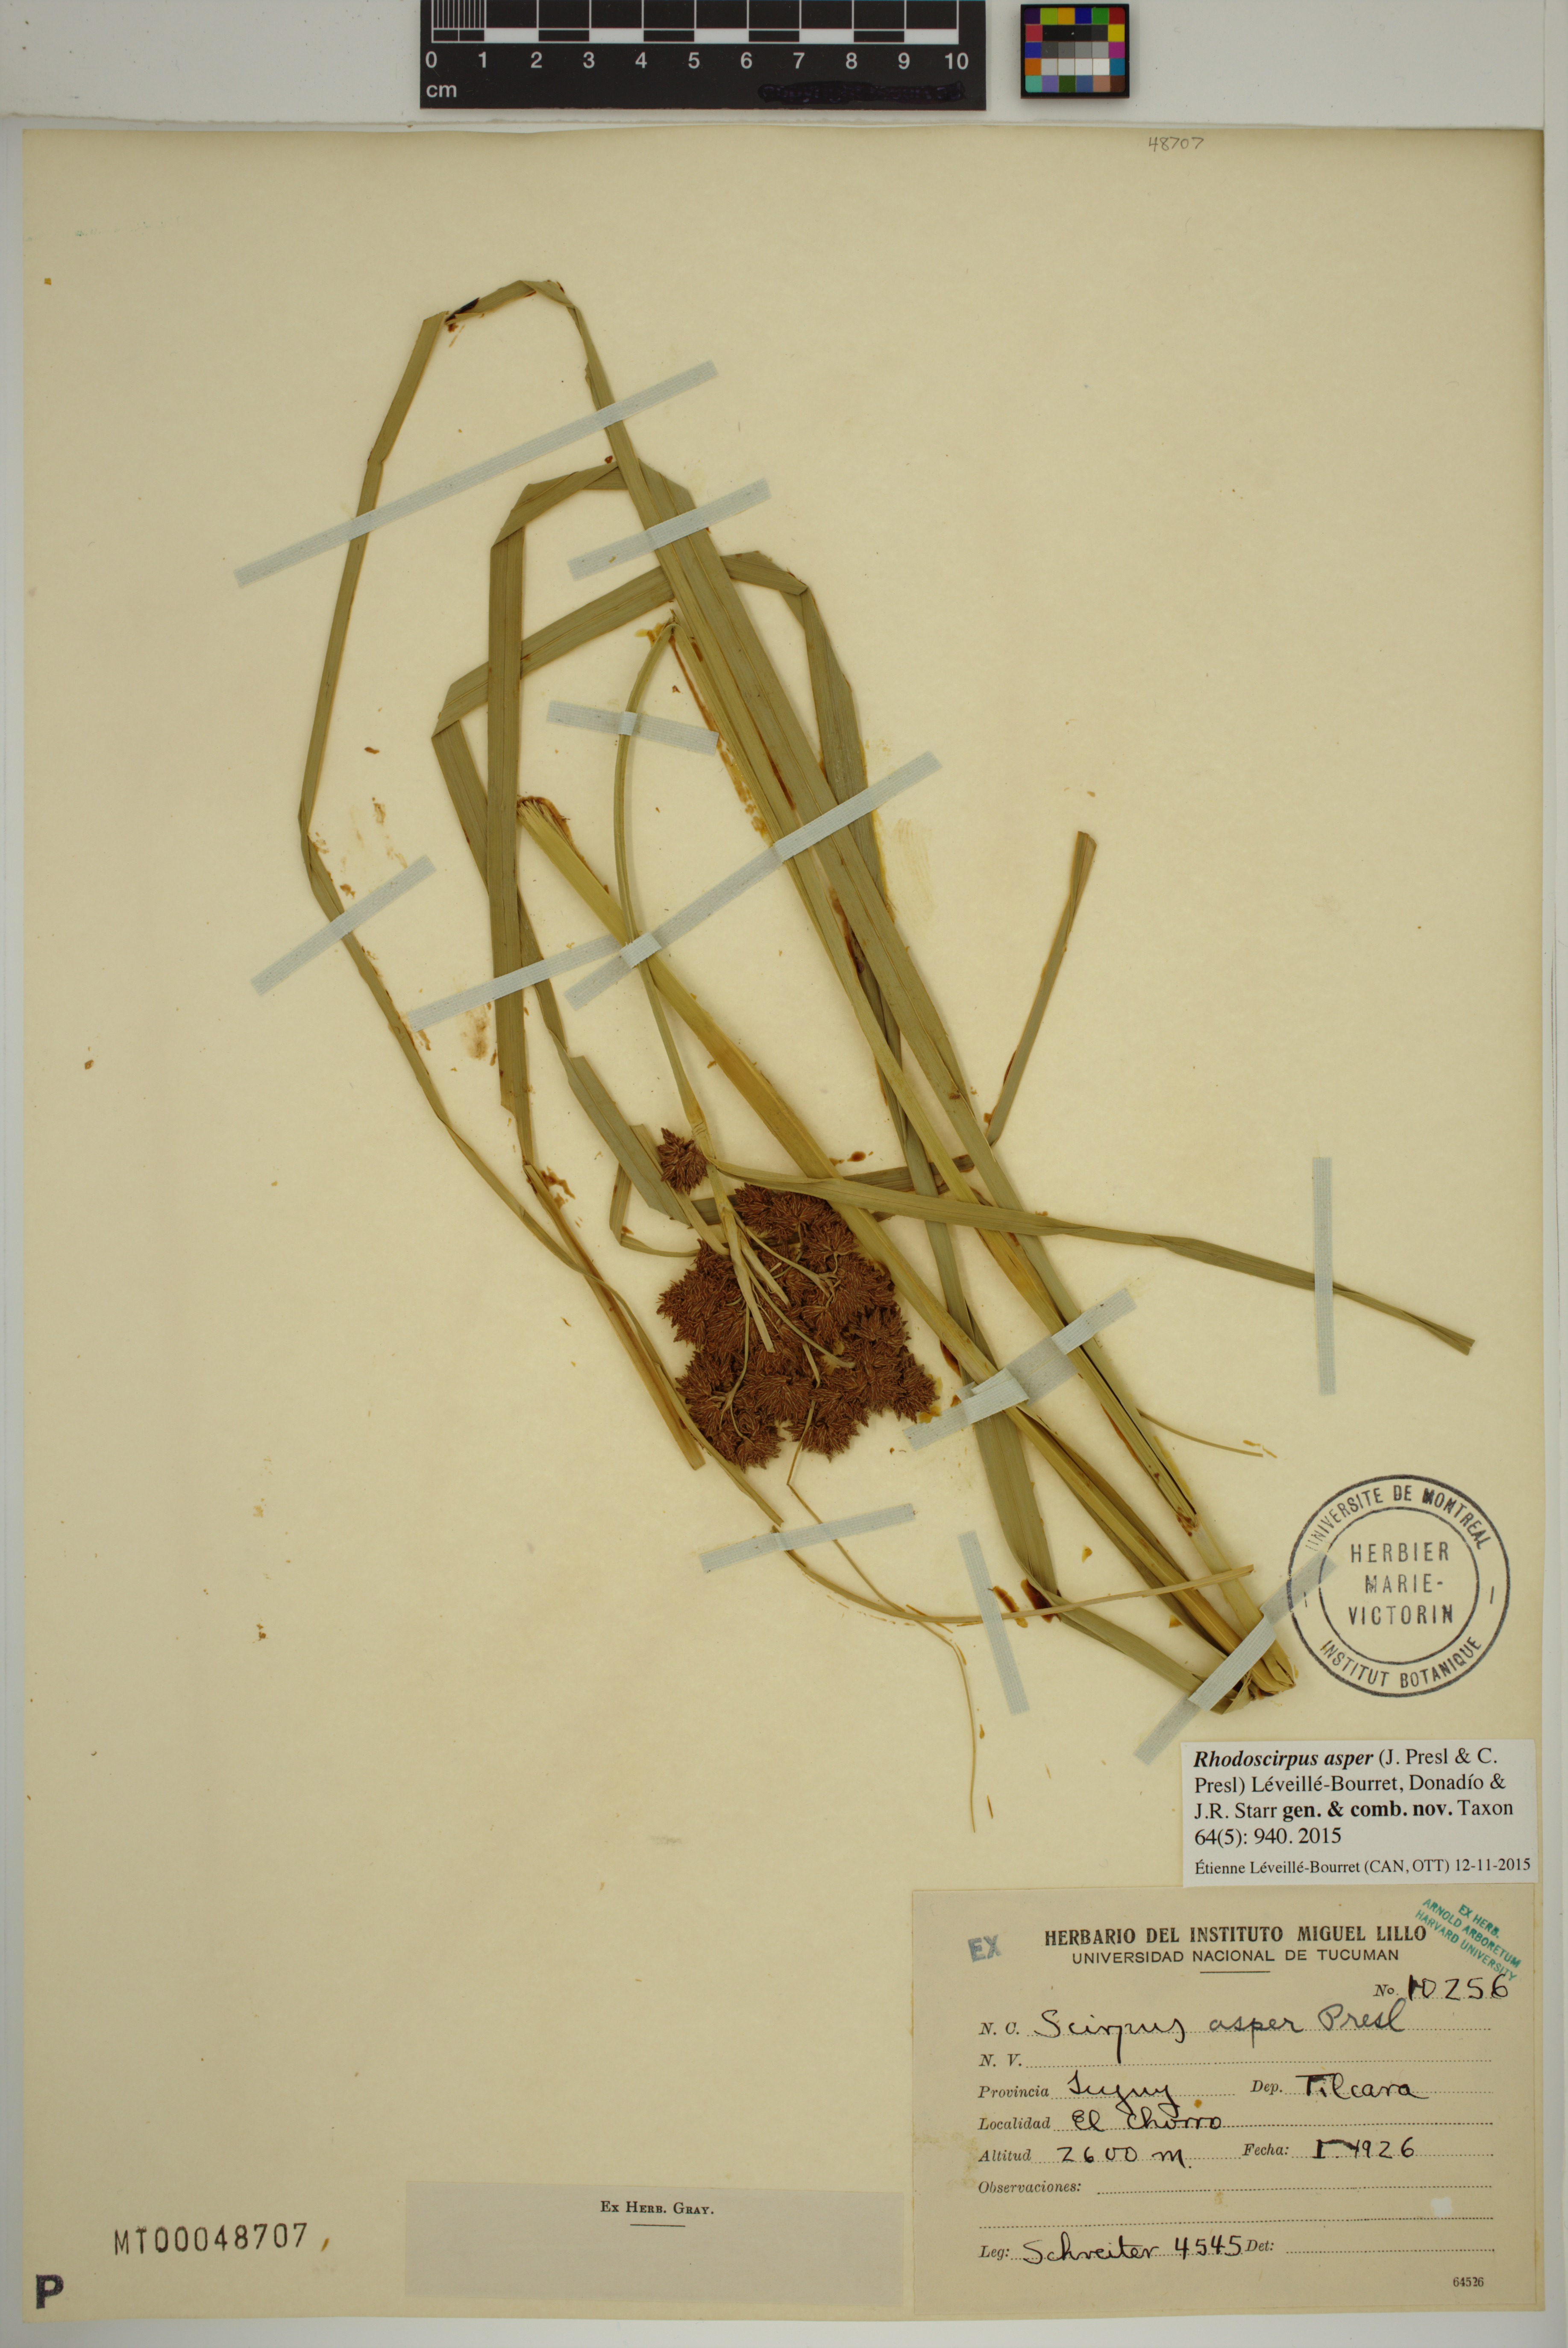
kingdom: Plantae
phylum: Tracheophyta
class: Liliopsida
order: Poales
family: Cyperaceae
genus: Rhodoscirpus
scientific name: Rhodoscirpus asper
